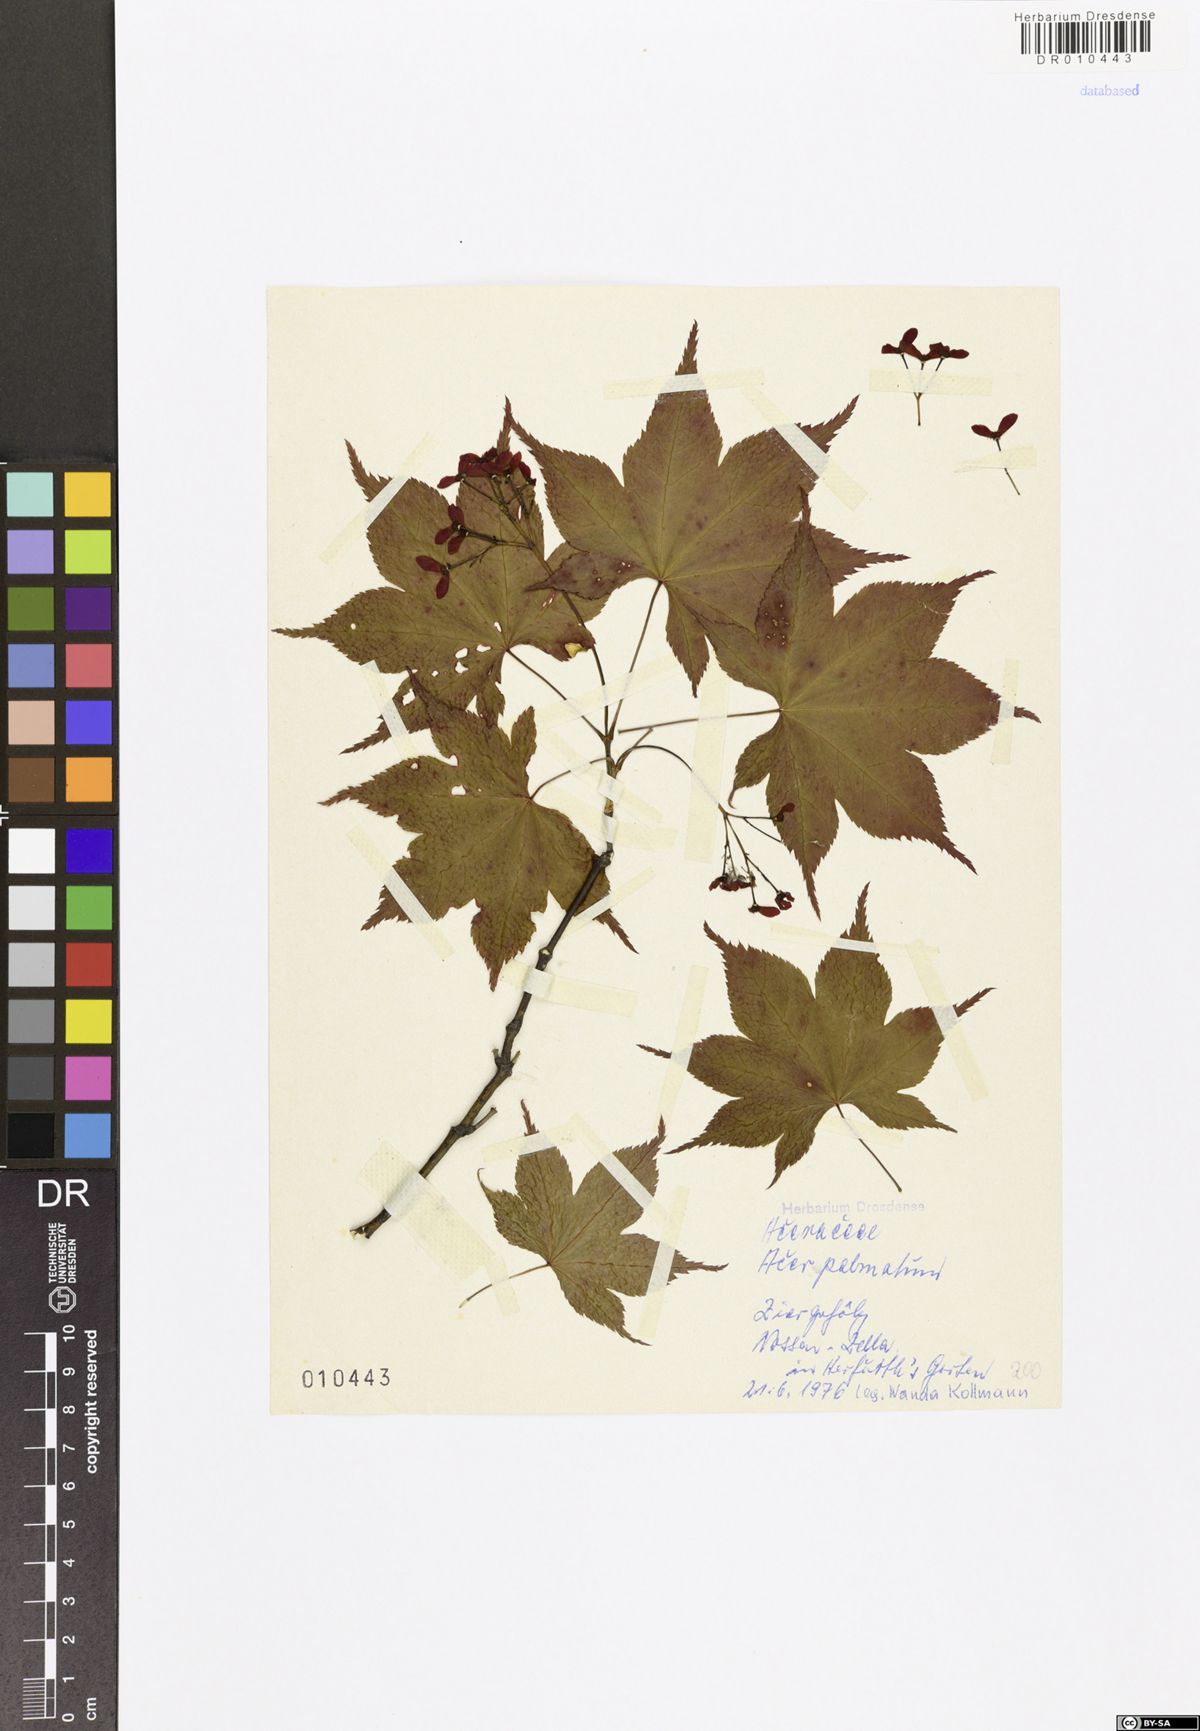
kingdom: Plantae
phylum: Tracheophyta
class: Magnoliopsida
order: Sapindales
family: Sapindaceae
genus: Acer
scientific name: Acer palmatum
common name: Japanese maple
